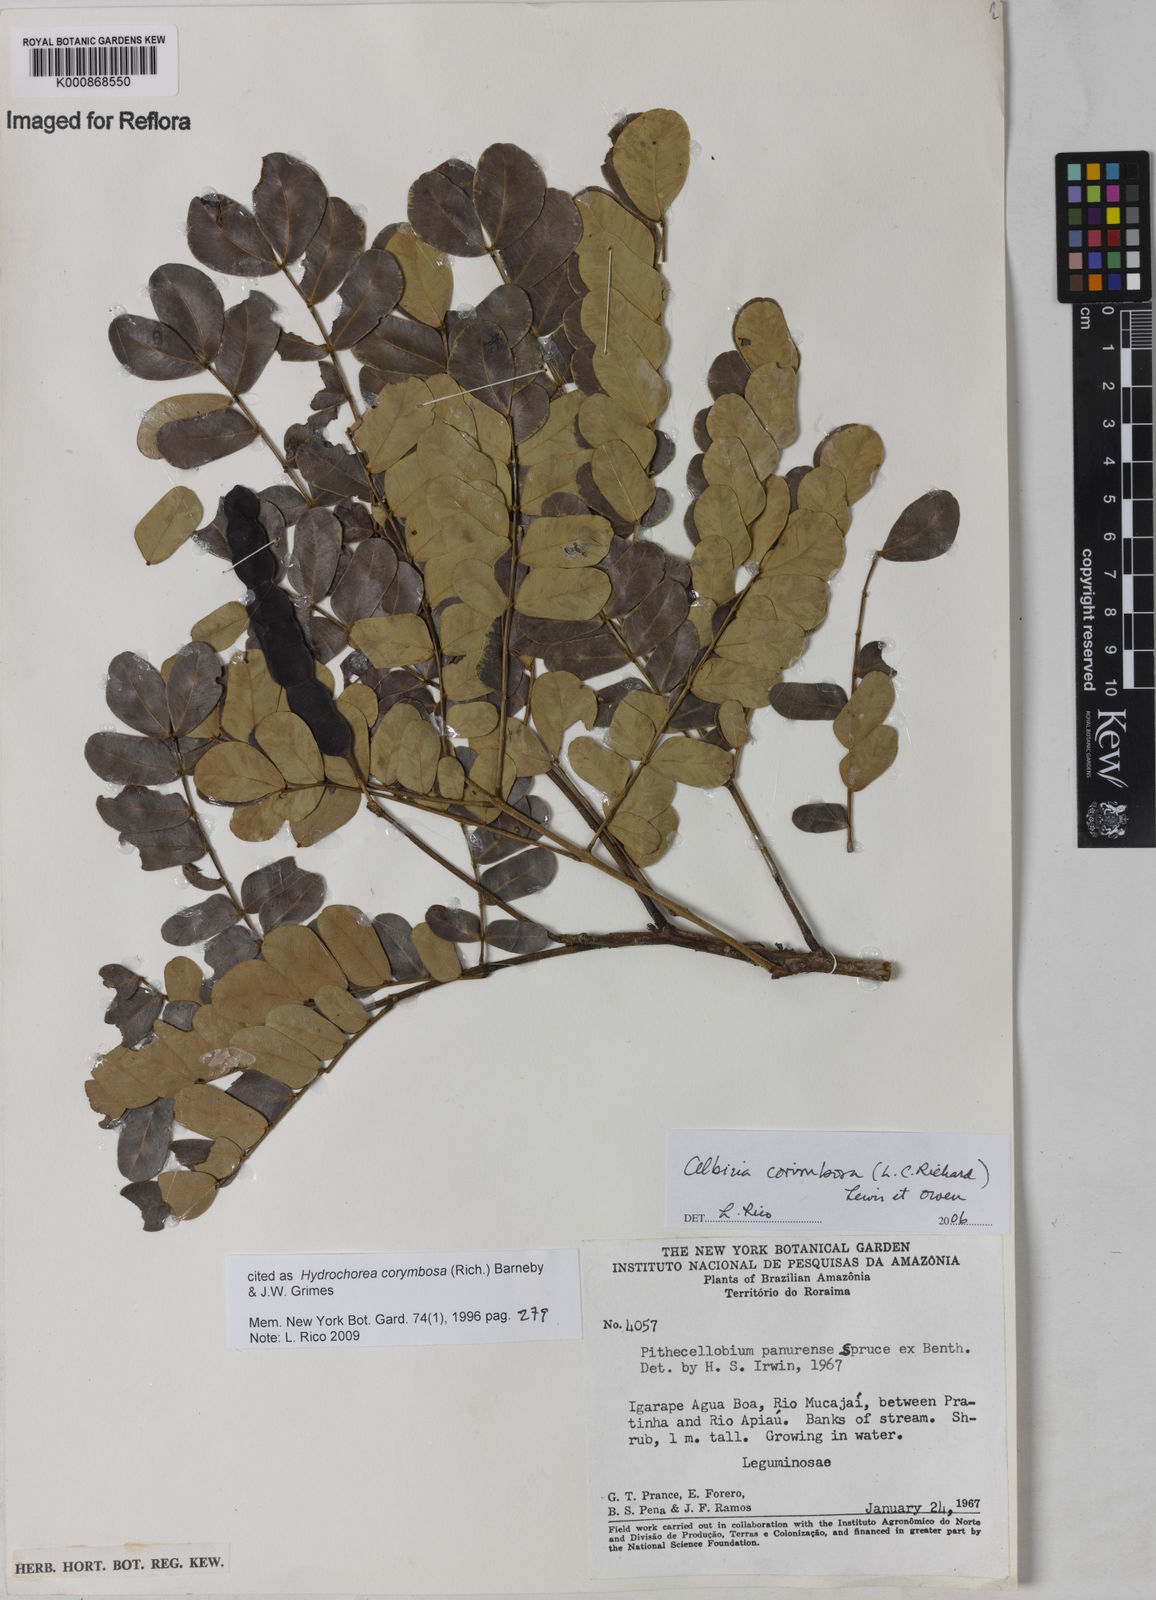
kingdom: Plantae
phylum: Tracheophyta
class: Magnoliopsida
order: Fabales
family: Fabaceae
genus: Hydrochorea
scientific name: Hydrochorea corymbosa
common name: Swamp manariballi
